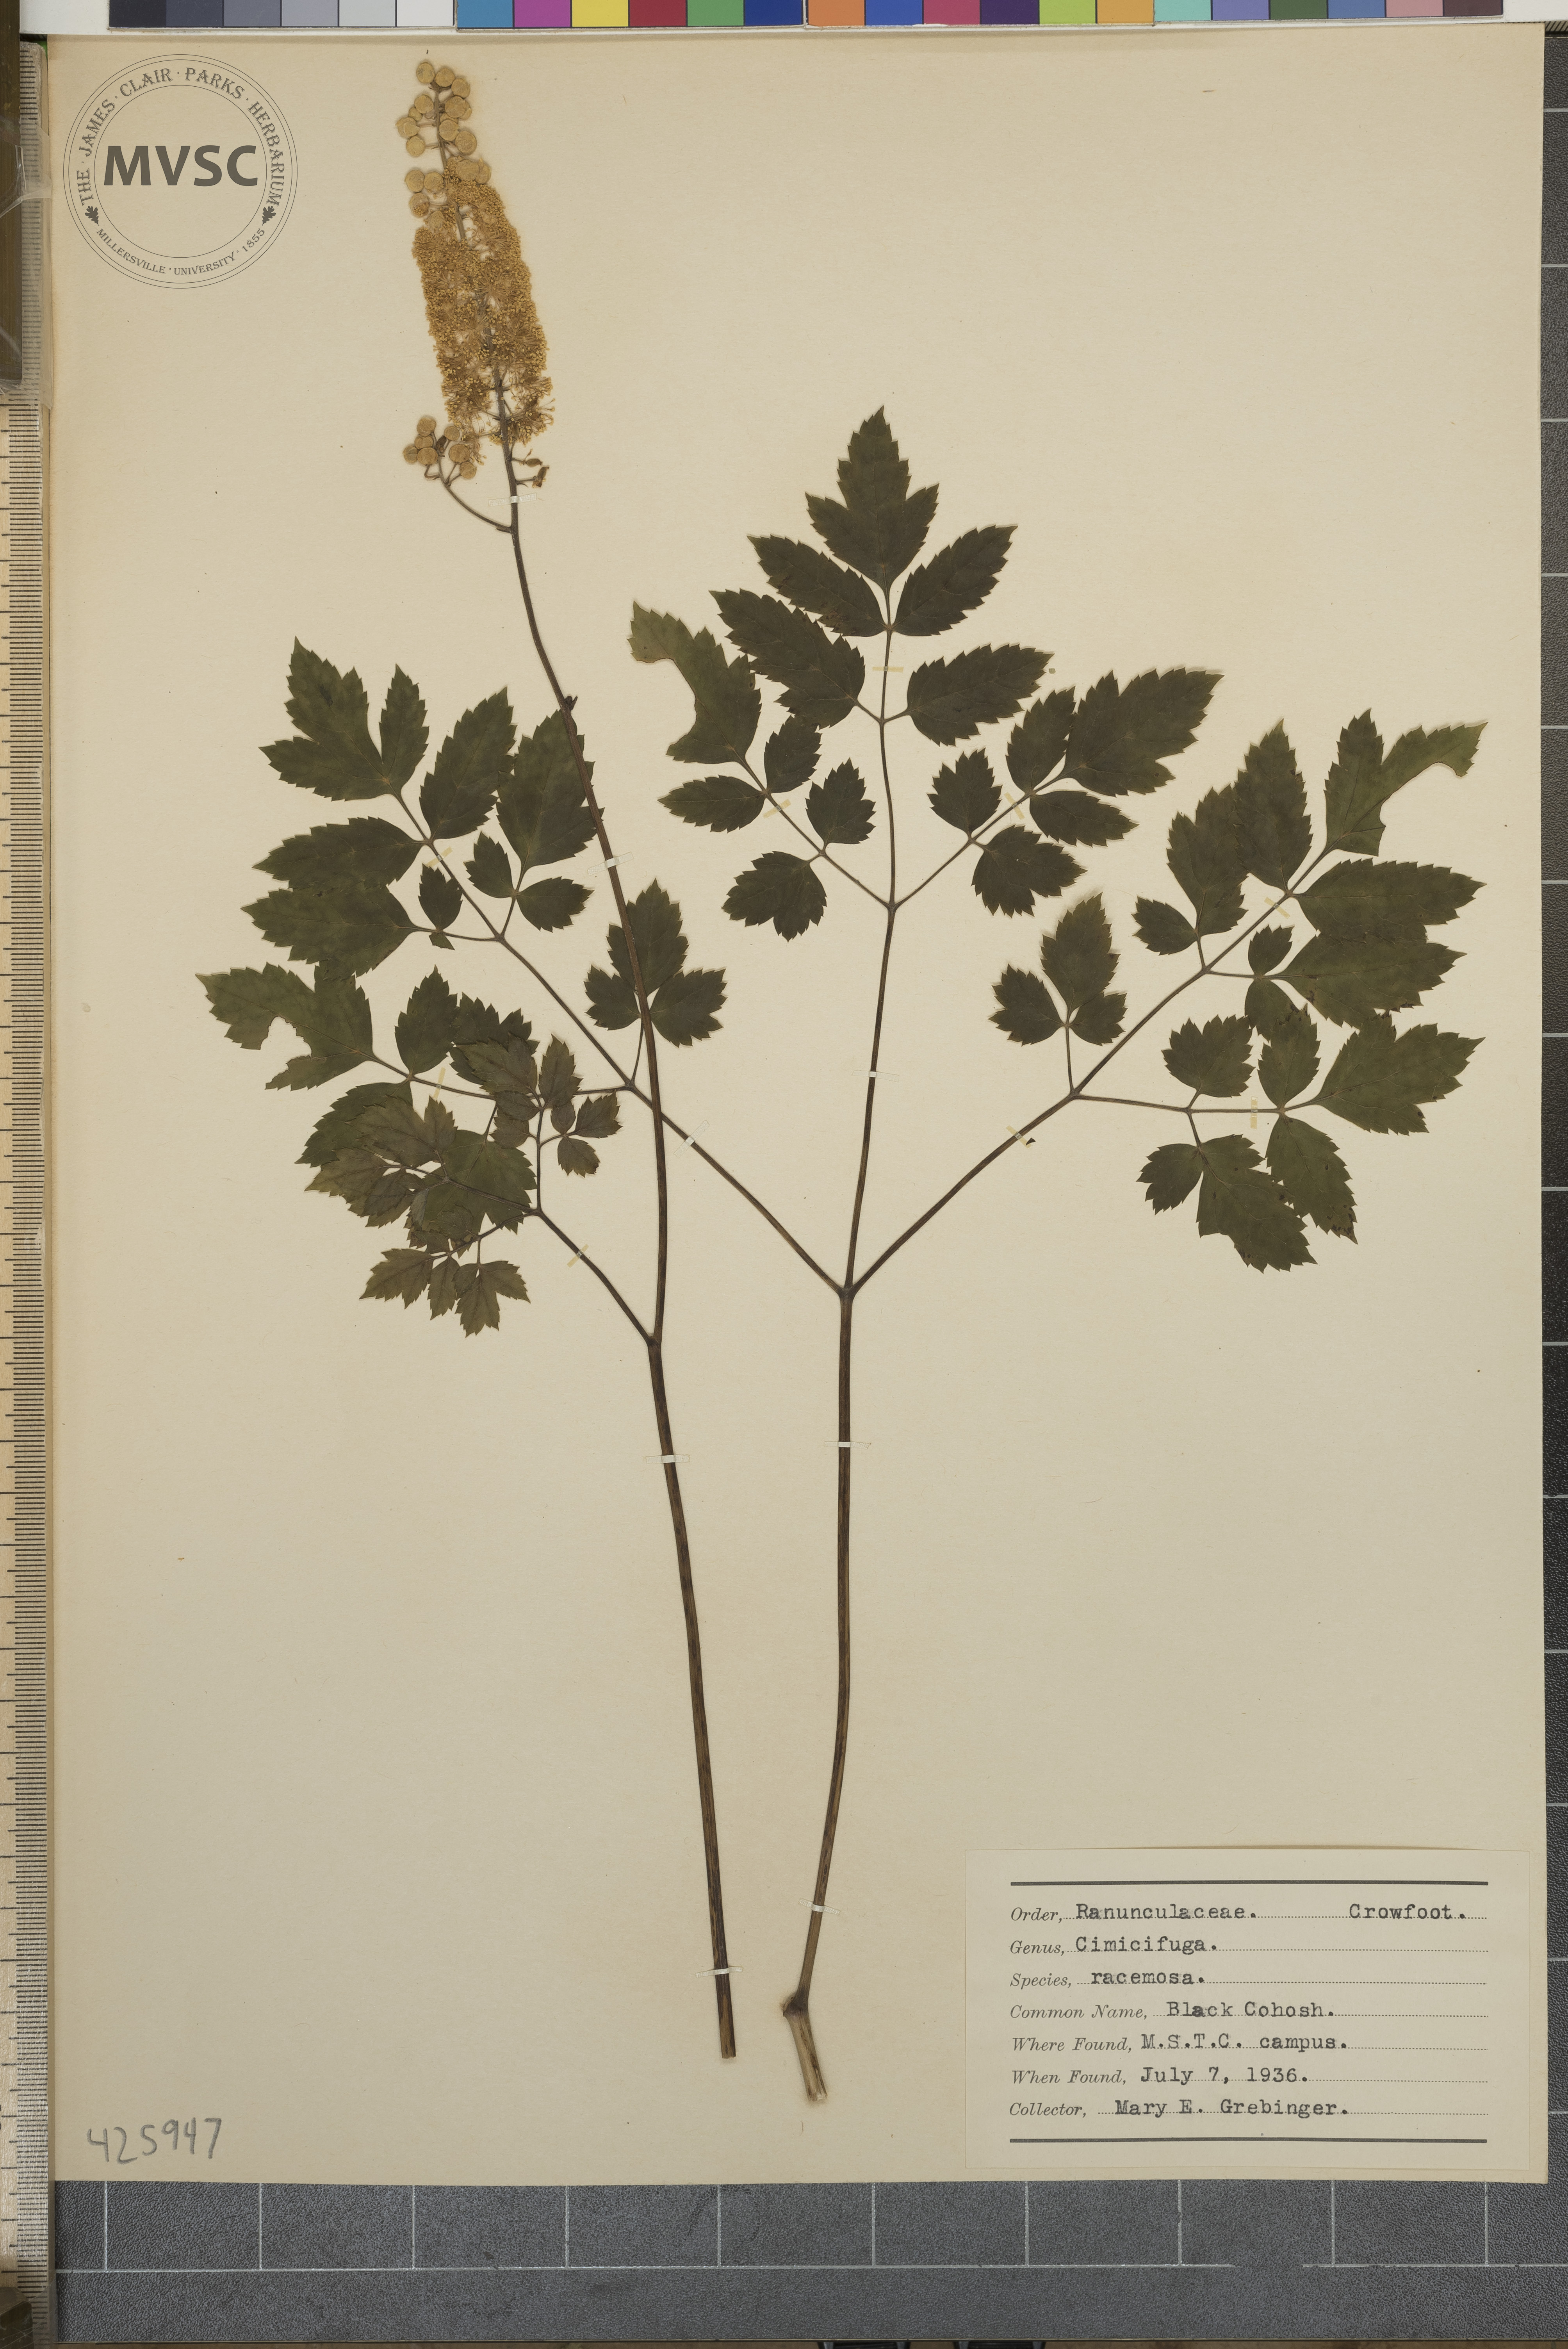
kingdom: Plantae
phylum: Tracheophyta
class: Magnoliopsida
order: Ranunculales
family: Ranunculaceae
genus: Actaea
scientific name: Actaea racemosa
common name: Black cohosh
